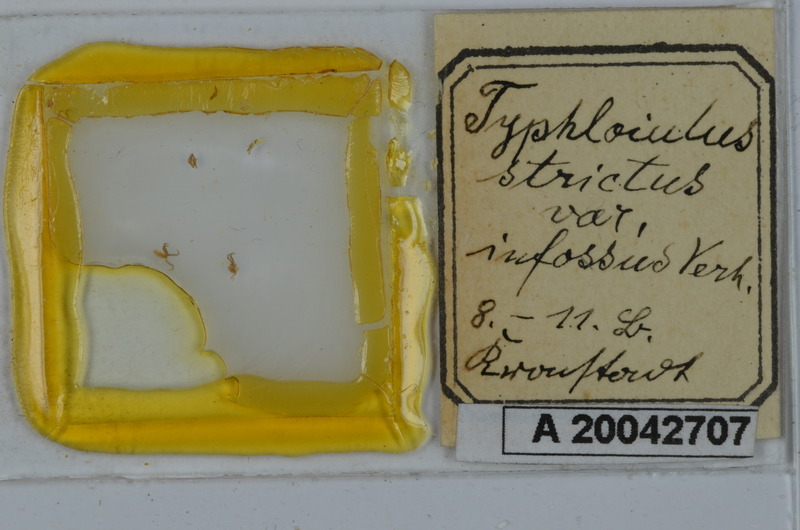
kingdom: Animalia
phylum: Arthropoda
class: Diplopoda
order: Julida
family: Julidae
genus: Typhloiulus
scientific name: Typhloiulus strictus
